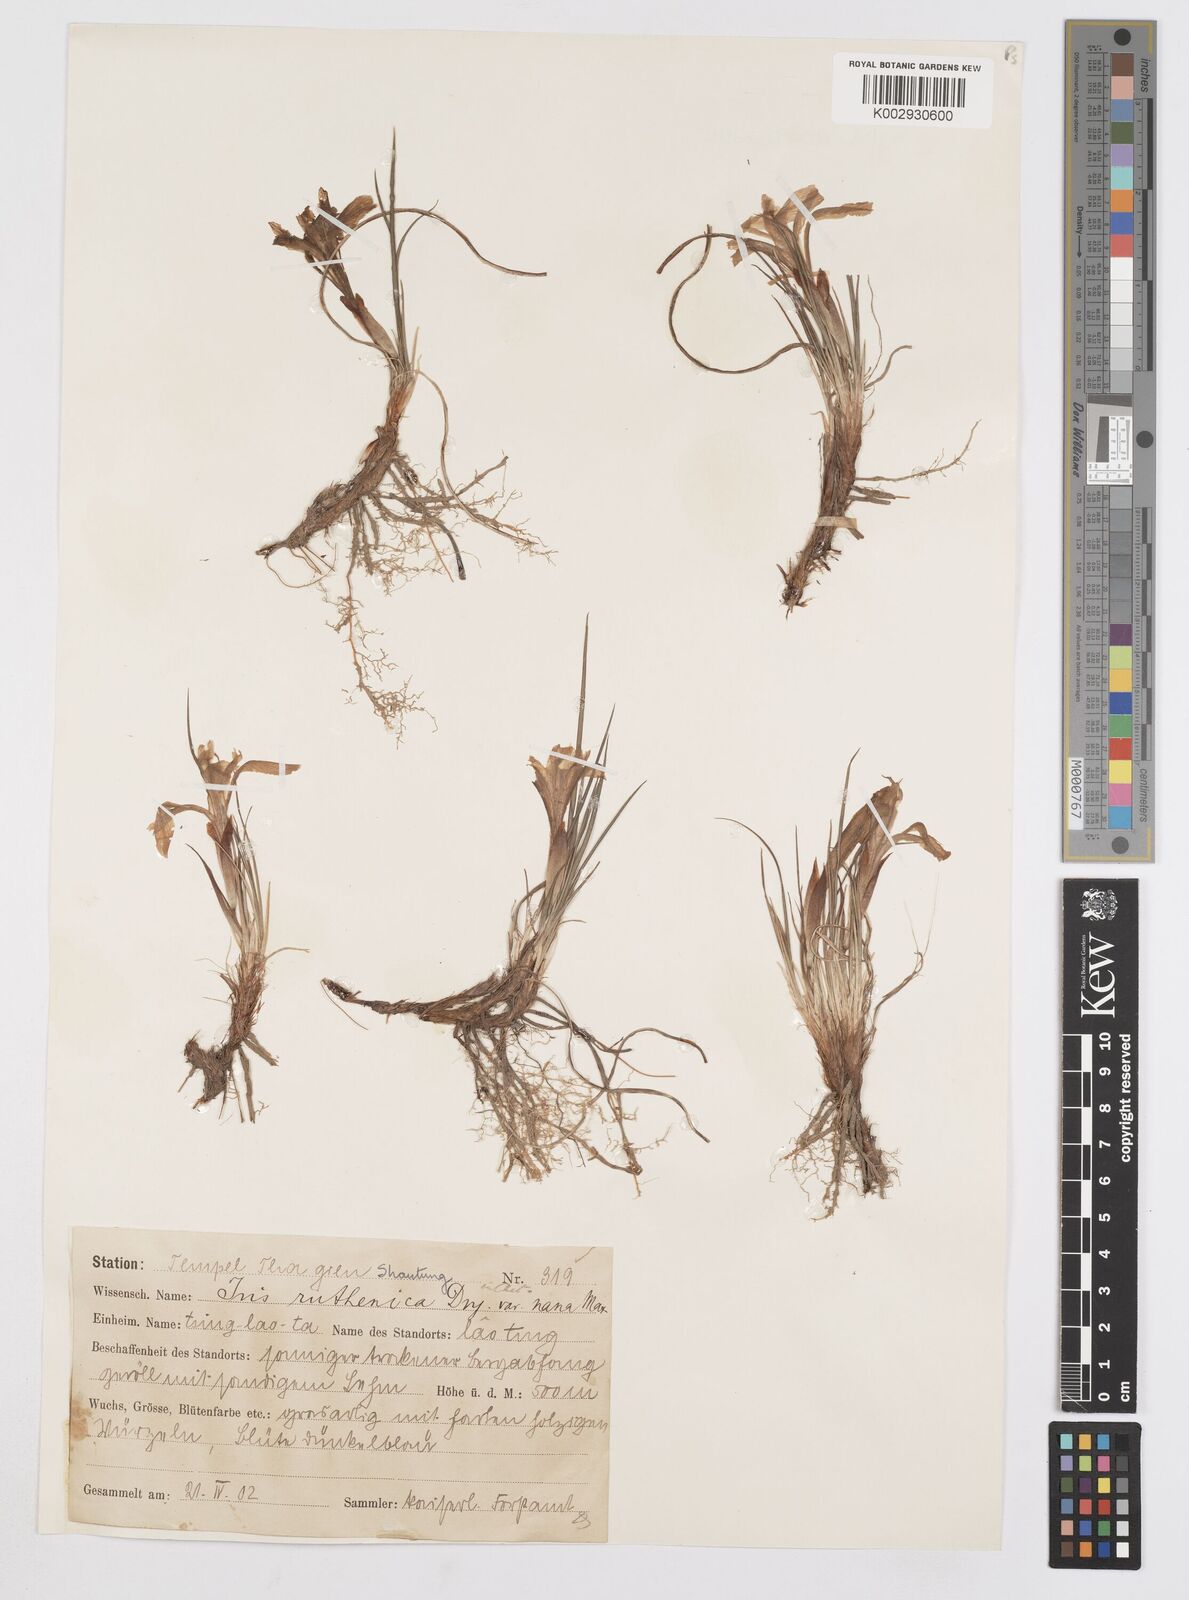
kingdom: Plantae
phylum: Tracheophyta
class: Liliopsida
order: Asparagales
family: Iridaceae
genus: Iris
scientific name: Iris ruthenica
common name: Purple-bract iris
